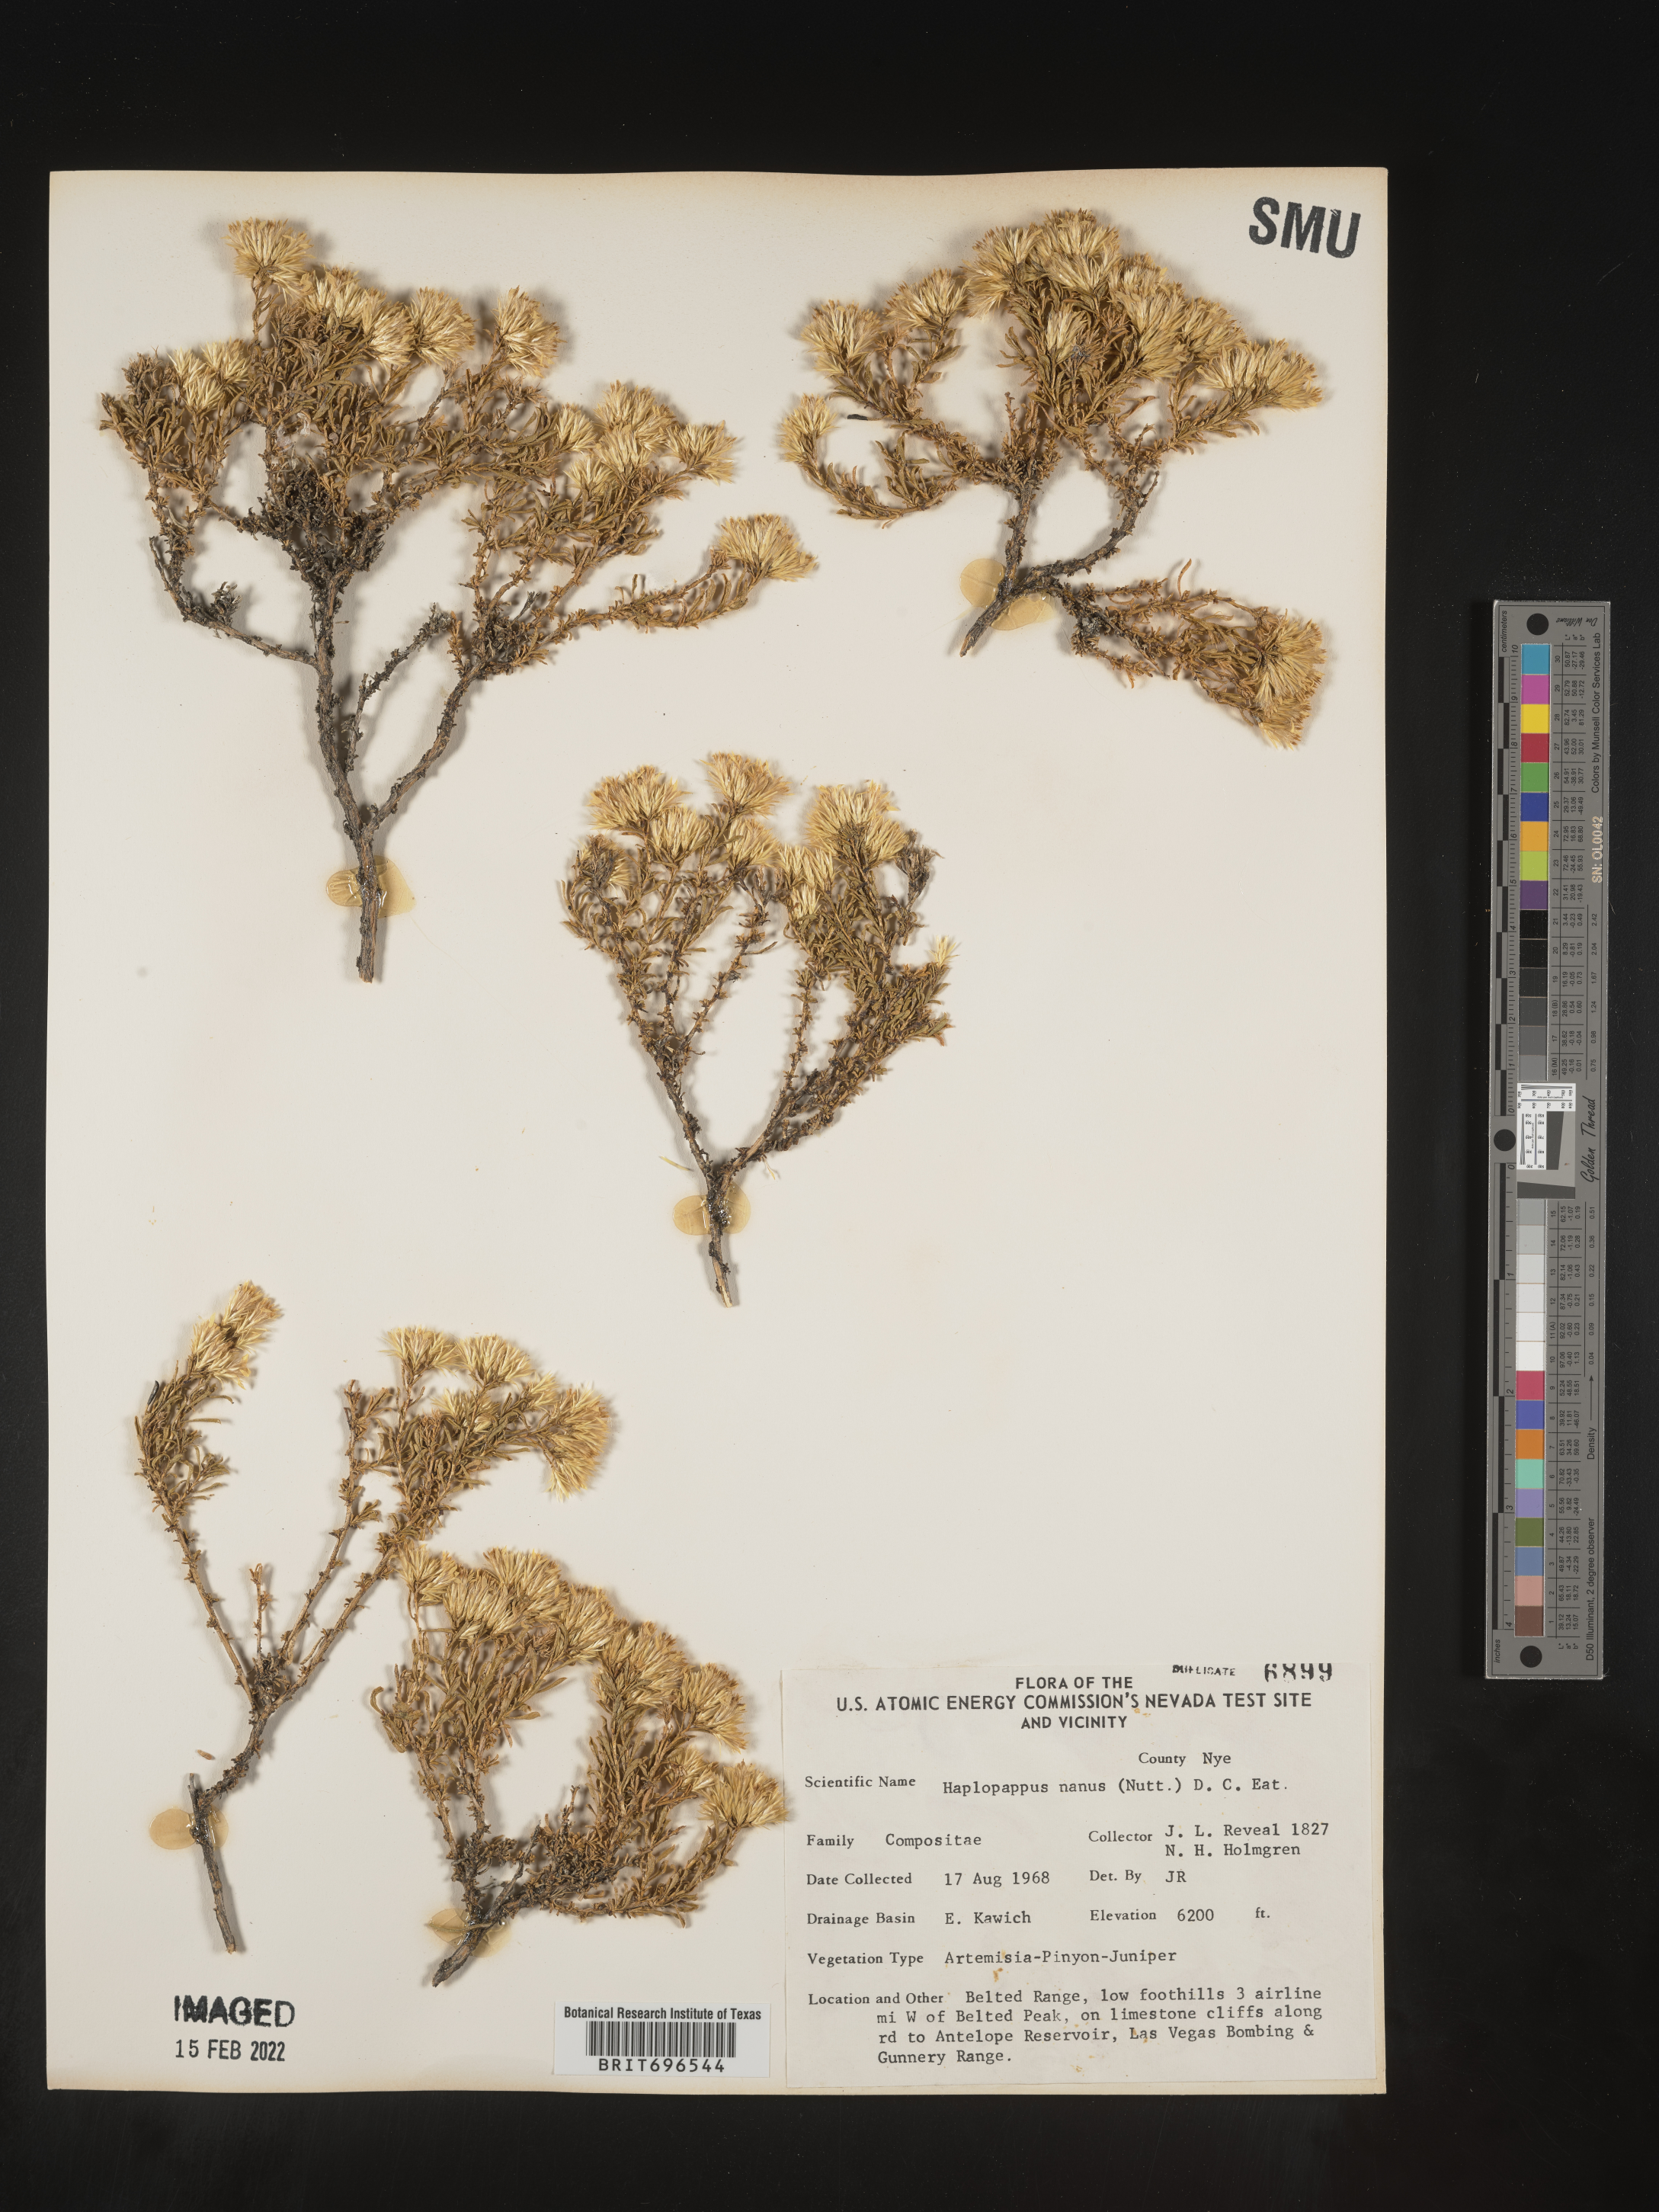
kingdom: Plantae
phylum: Tracheophyta
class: Magnoliopsida
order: Asterales
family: Asteraceae
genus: Ericameria
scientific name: Ericameria nana
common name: Dwarf goldenbush
